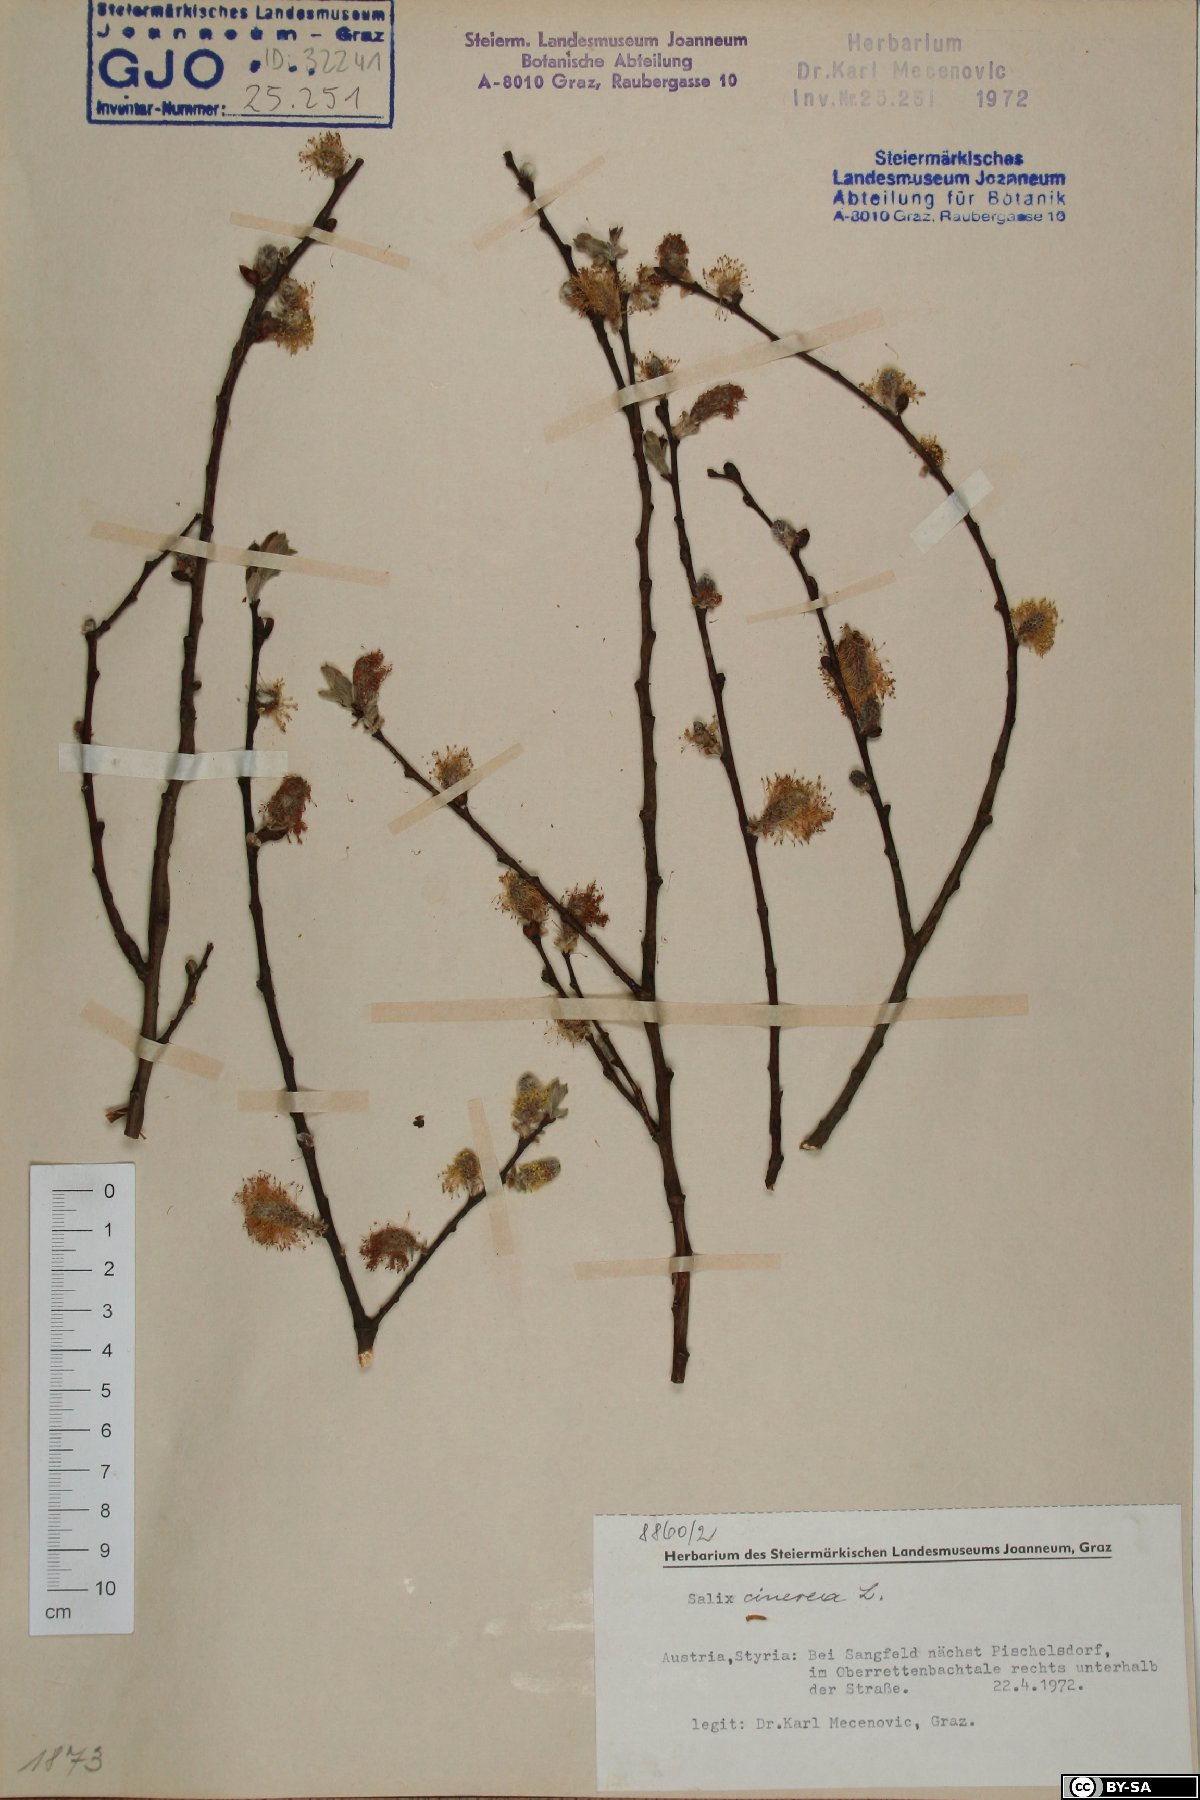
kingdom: Plantae
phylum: Tracheophyta
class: Magnoliopsida
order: Malpighiales
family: Salicaceae
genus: Salix
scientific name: Salix cinerea
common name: Common sallow
